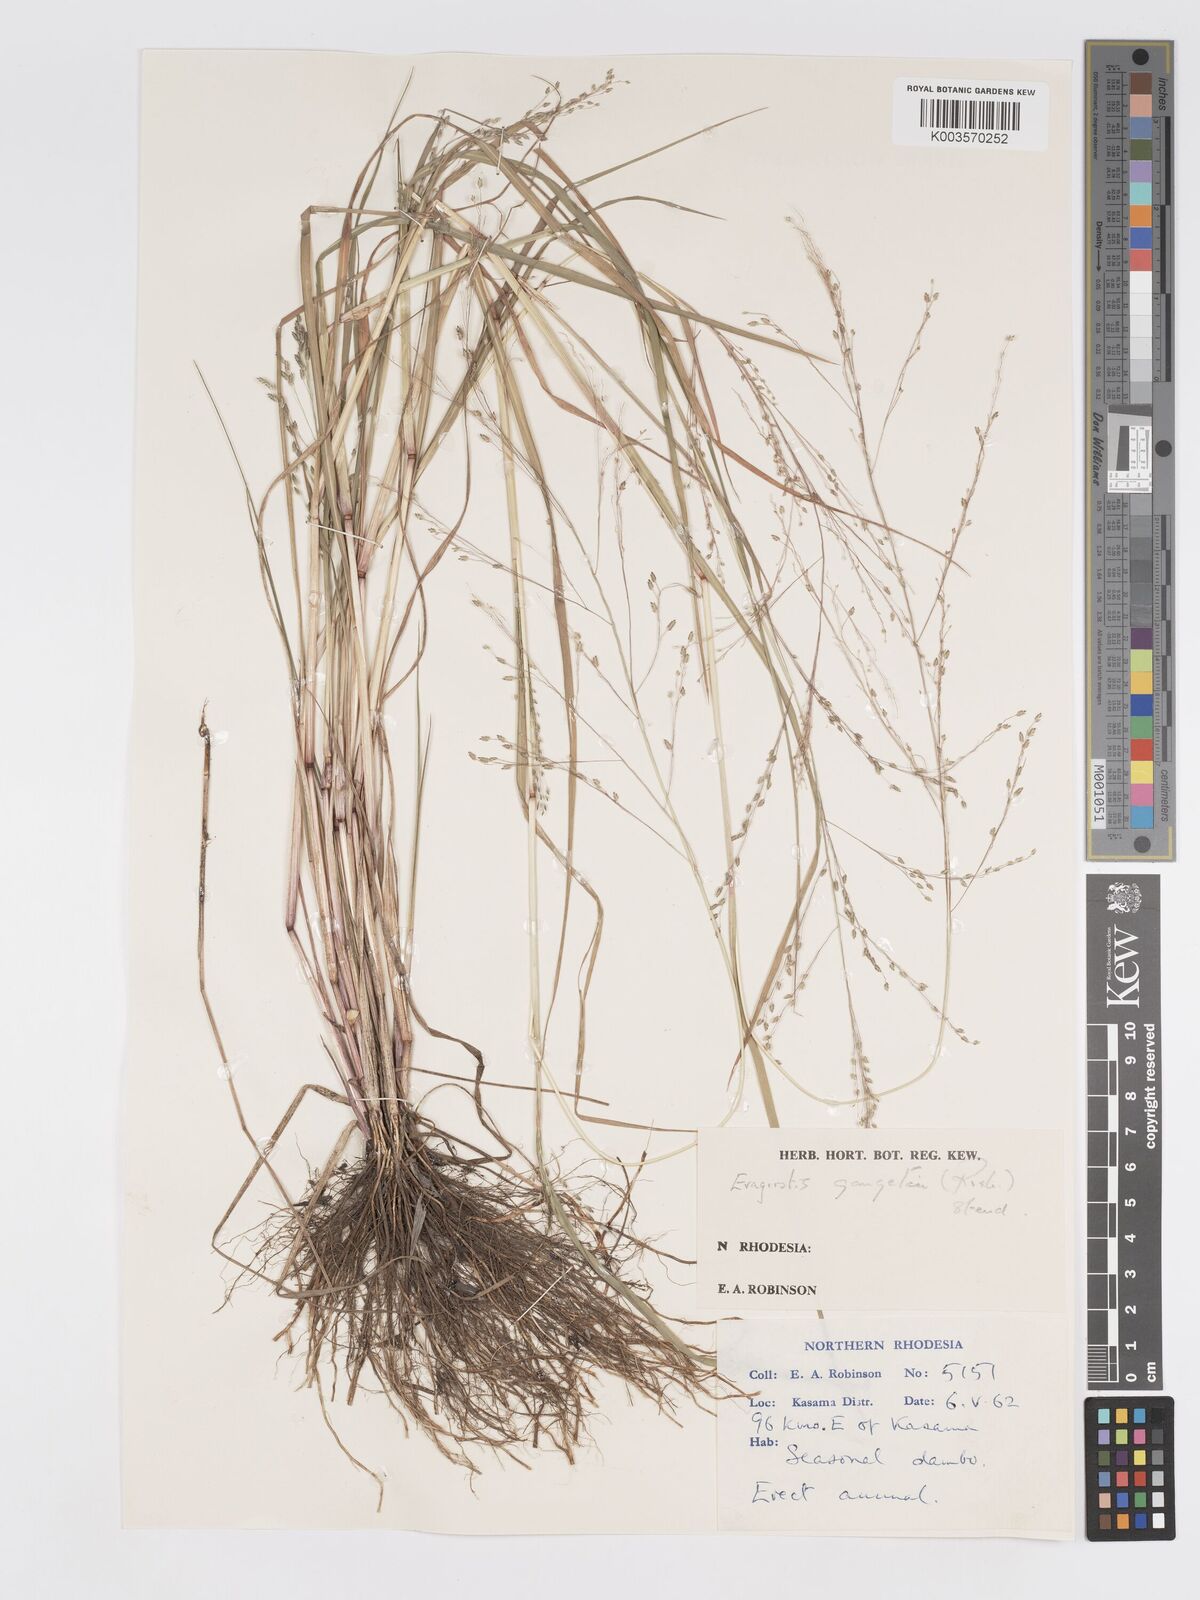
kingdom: Plantae
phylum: Tracheophyta
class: Liliopsida
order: Poales
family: Poaceae
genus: Eragrostis
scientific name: Eragrostis gangetica
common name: Slimflower lovegrass
